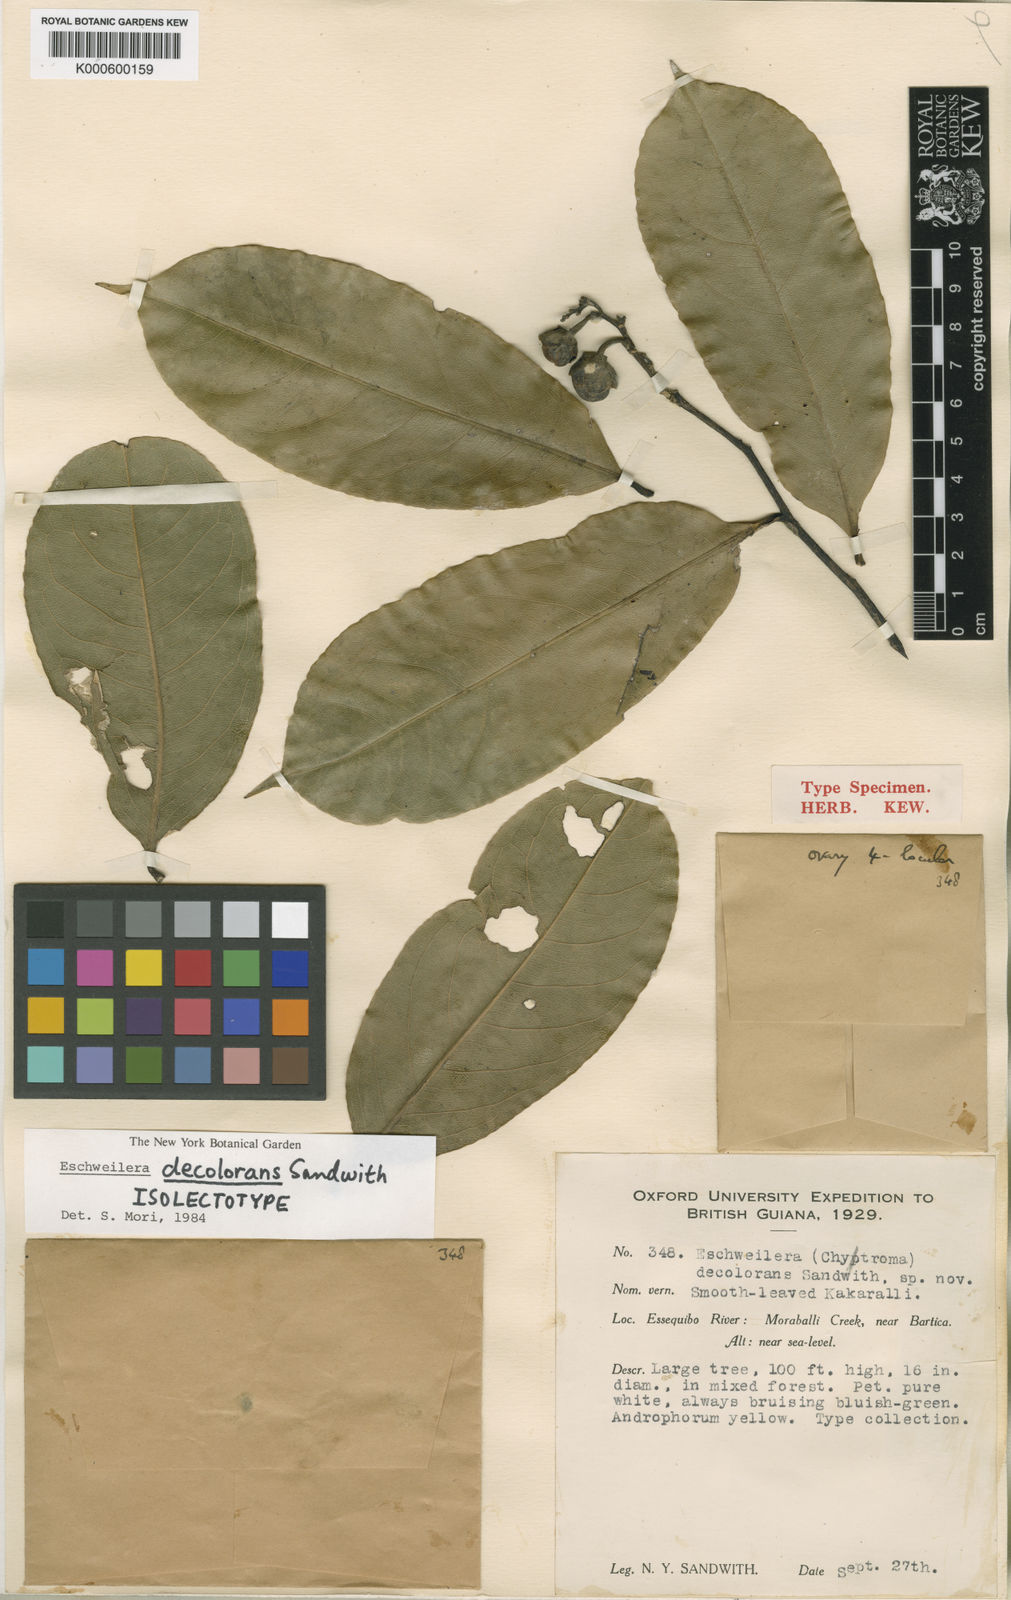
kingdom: Plantae
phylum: Tracheophyta
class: Magnoliopsida
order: Ericales
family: Lecythidaceae
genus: Eschweilera
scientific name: Eschweilera decolorans
